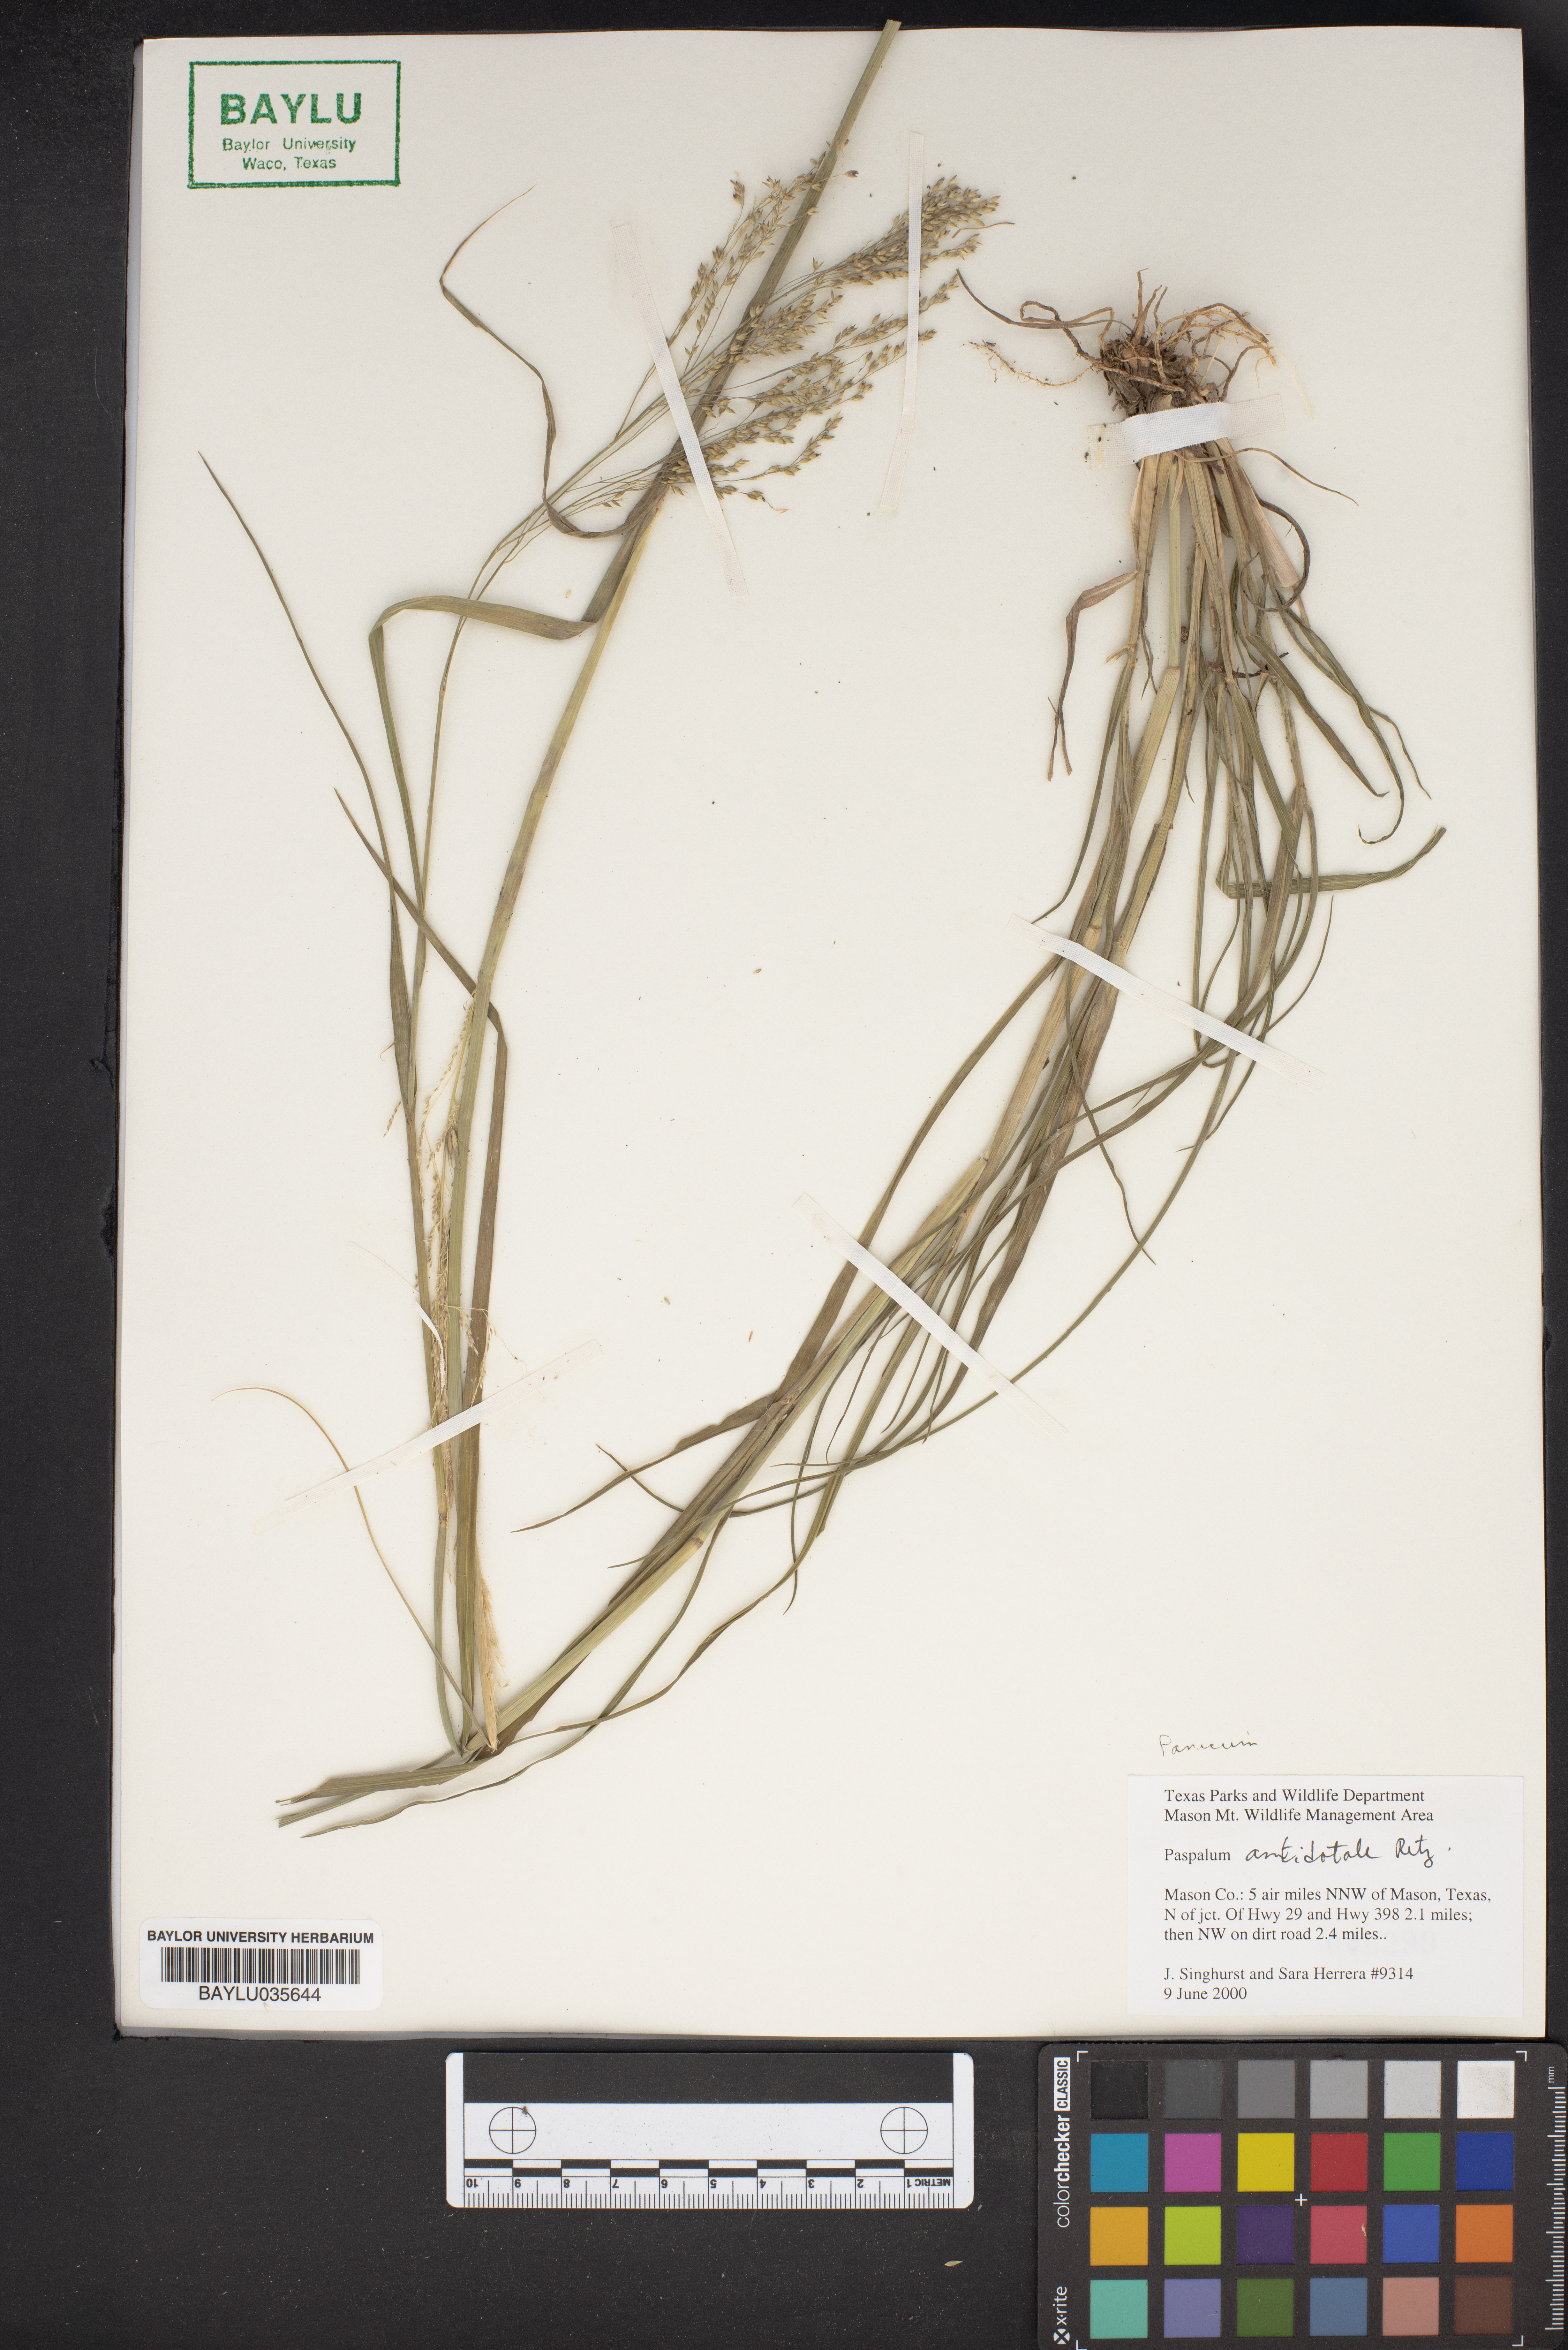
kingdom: Plantae
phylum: Tracheophyta
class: Liliopsida
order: Poales
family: Poaceae
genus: Paspalum
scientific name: Paspalum
